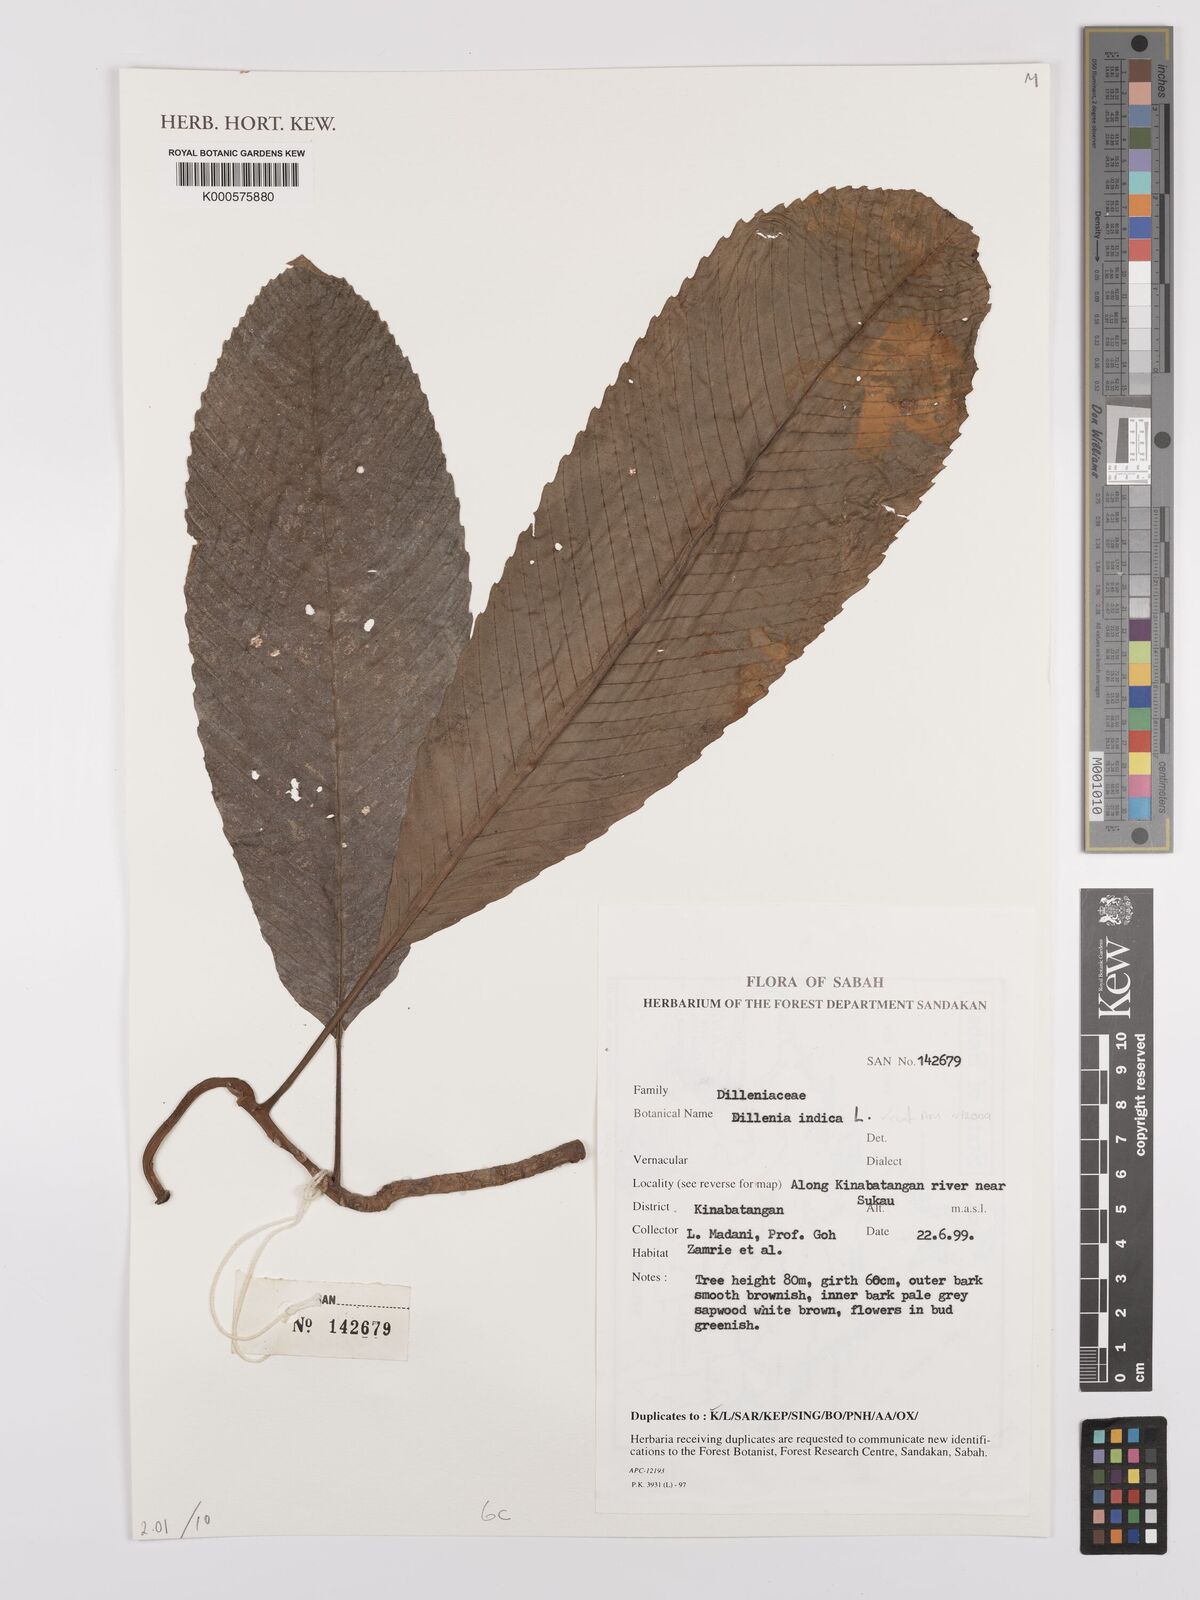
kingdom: Plantae
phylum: Tracheophyta
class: Magnoliopsida
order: Dilleniales
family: Dilleniaceae
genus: Dillenia
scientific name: Dillenia indica
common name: Elephant apple
